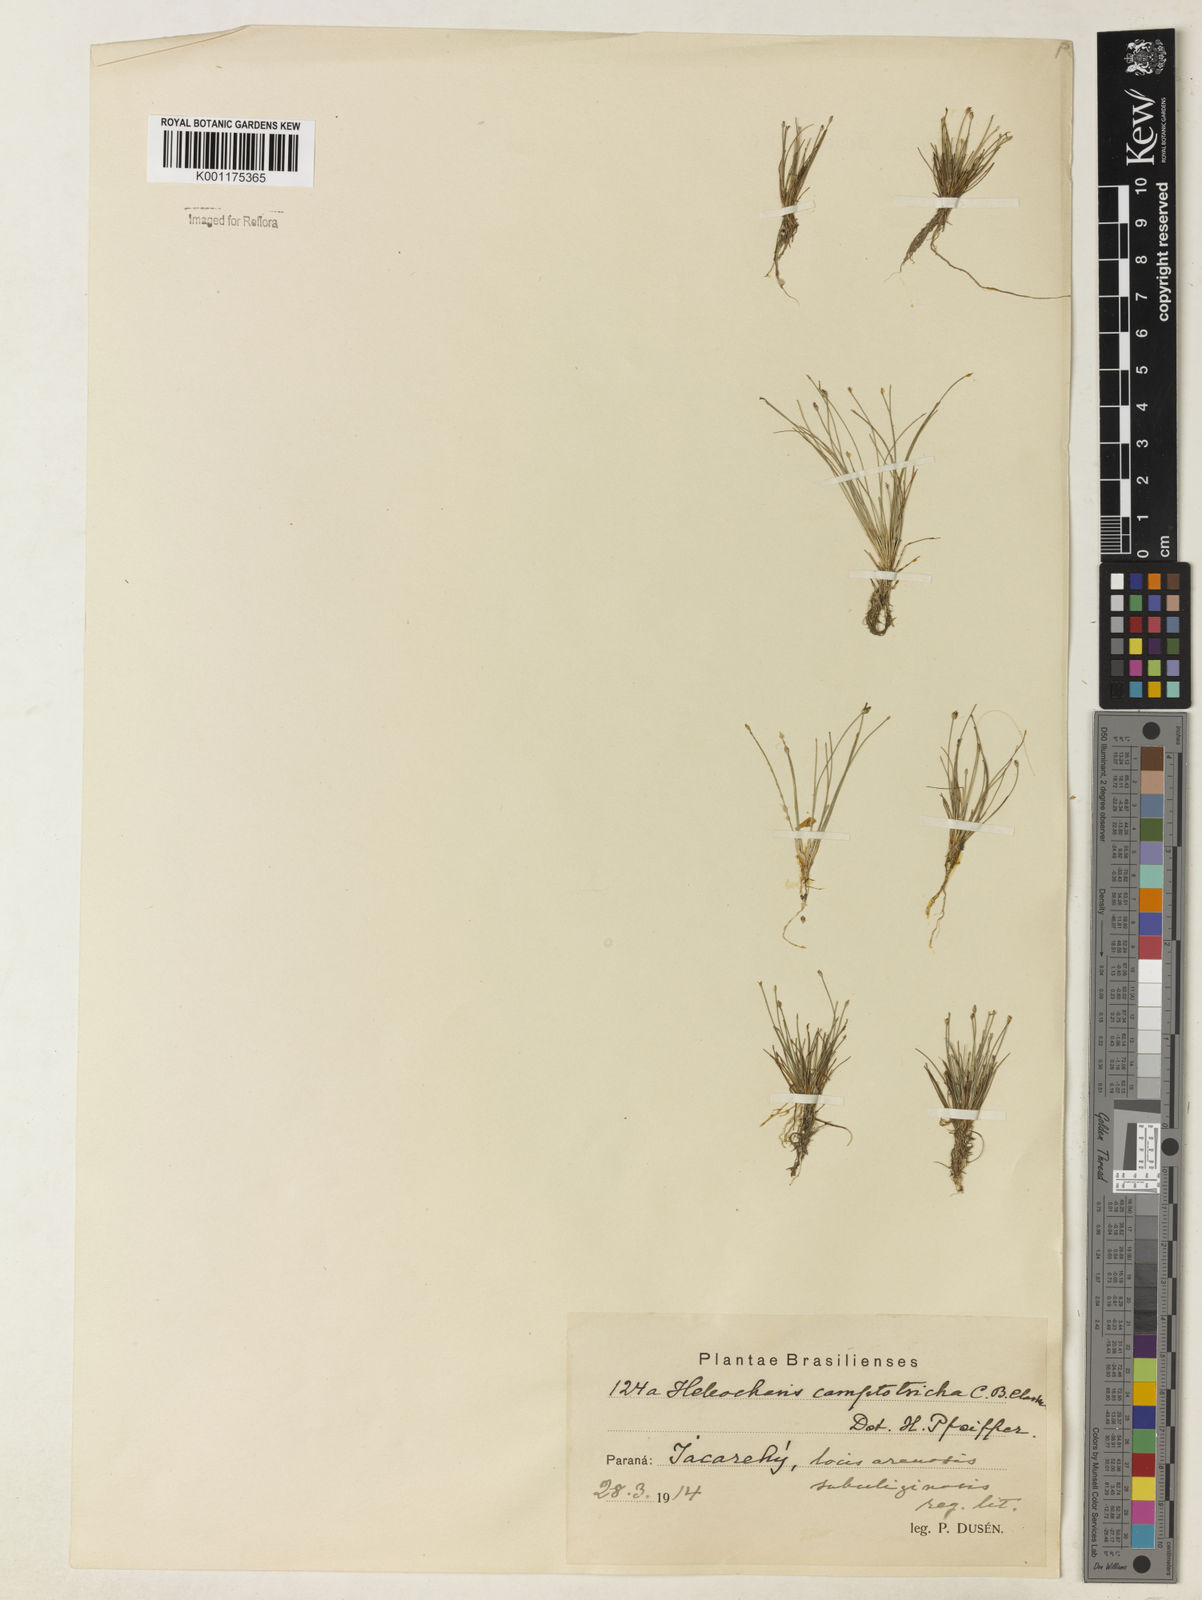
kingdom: Plantae
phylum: Tracheophyta
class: Liliopsida
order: Poales
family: Cyperaceae
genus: Eleocharis
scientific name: Eleocharis nana
